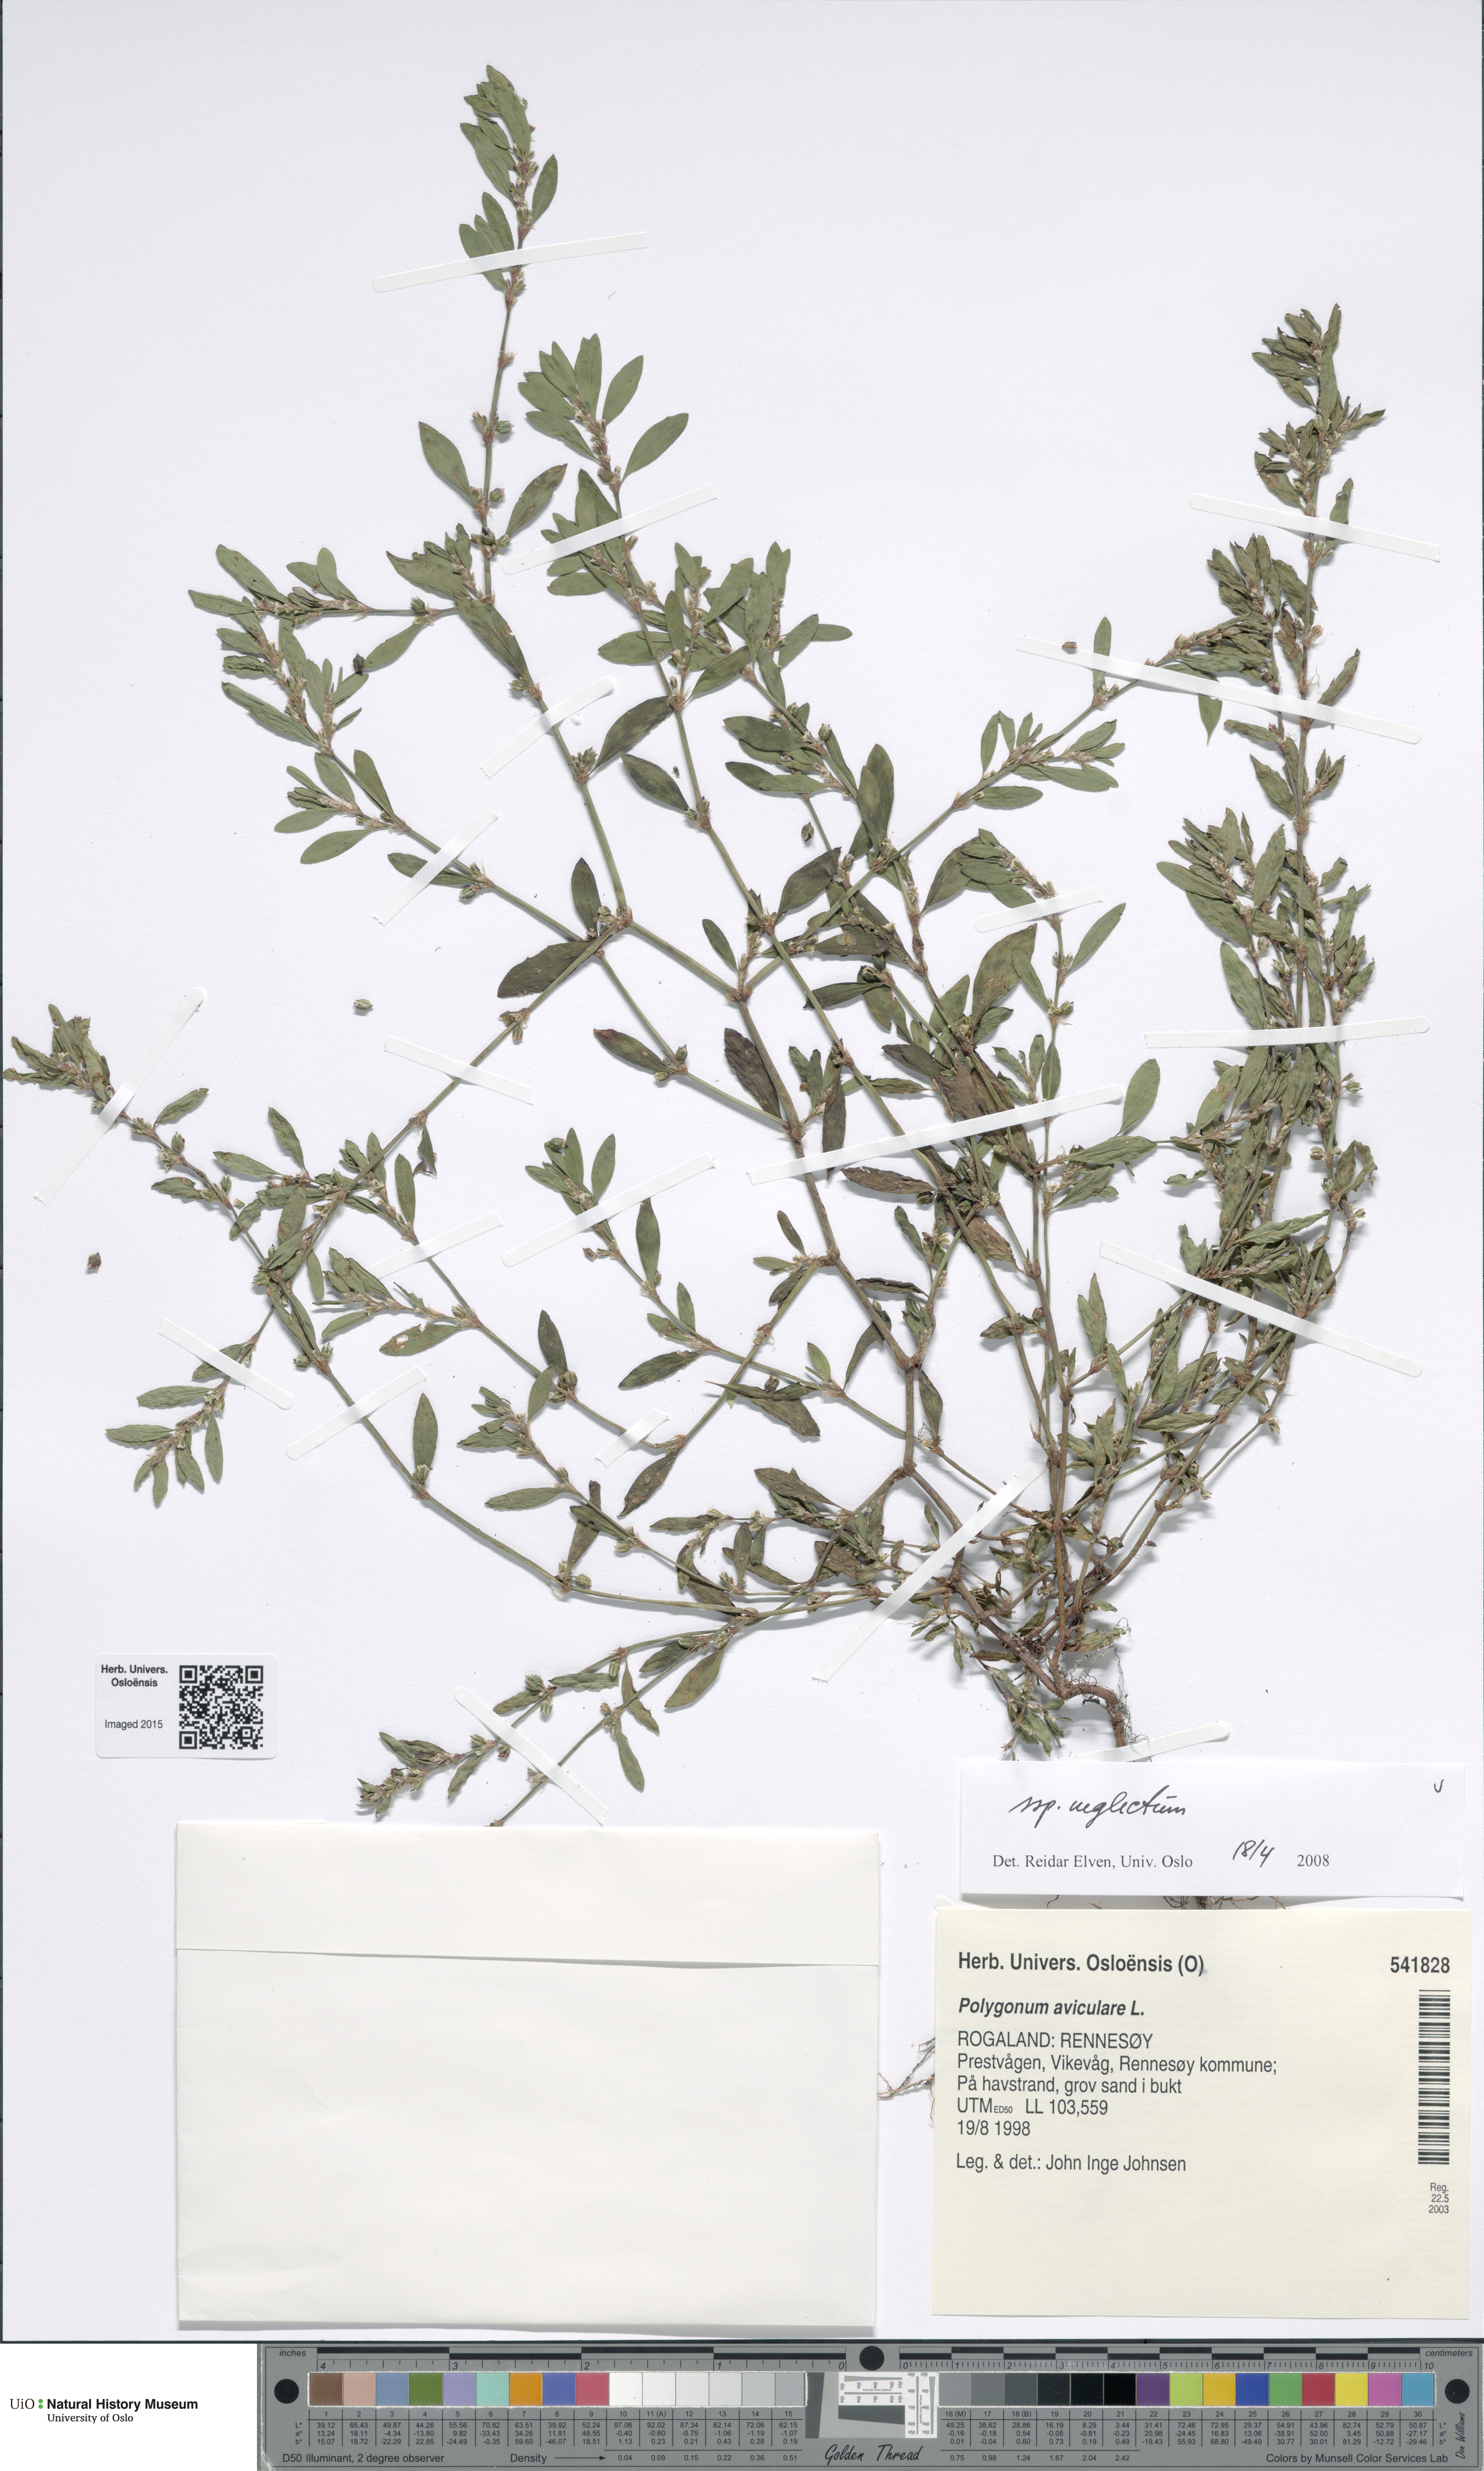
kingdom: Plantae
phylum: Tracheophyta
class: Magnoliopsida
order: Caryophyllales
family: Polygonaceae
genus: Polygonum
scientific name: Polygonum aviculare
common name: Prostrate knotweed
